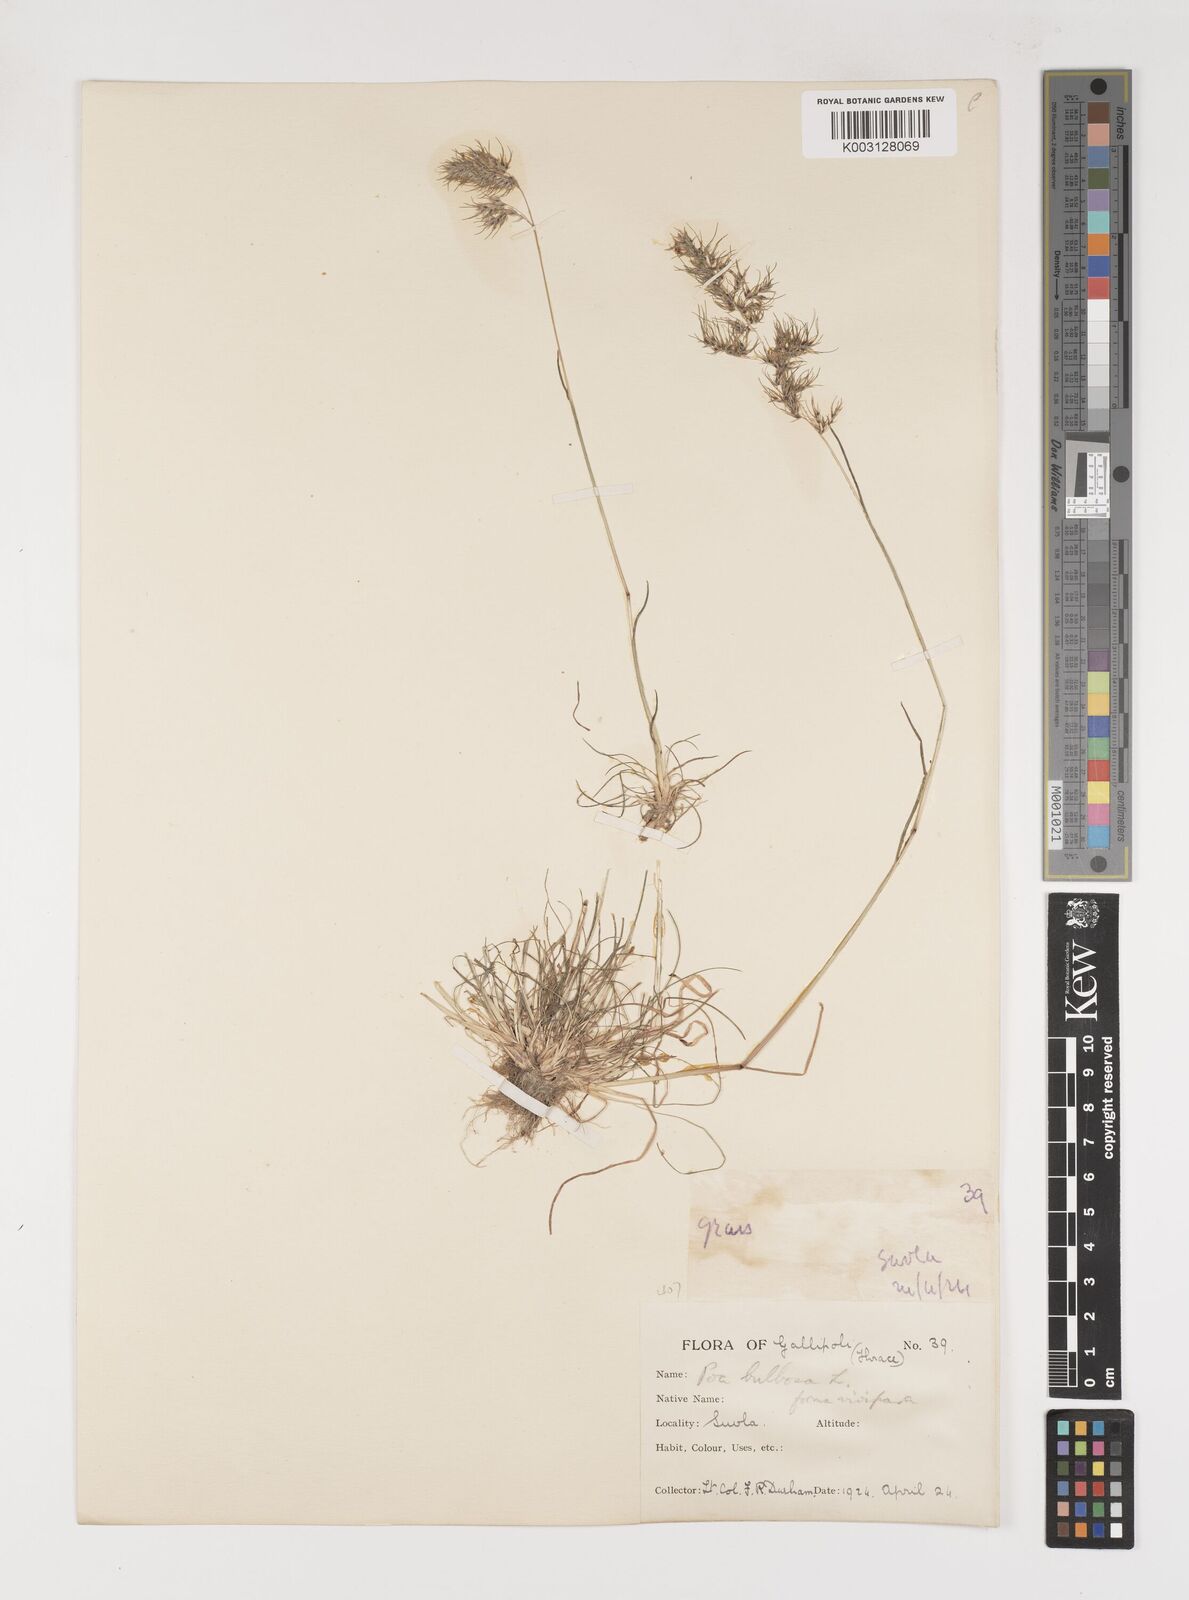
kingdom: Plantae
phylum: Tracheophyta
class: Liliopsida
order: Poales
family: Poaceae
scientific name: Poaceae
